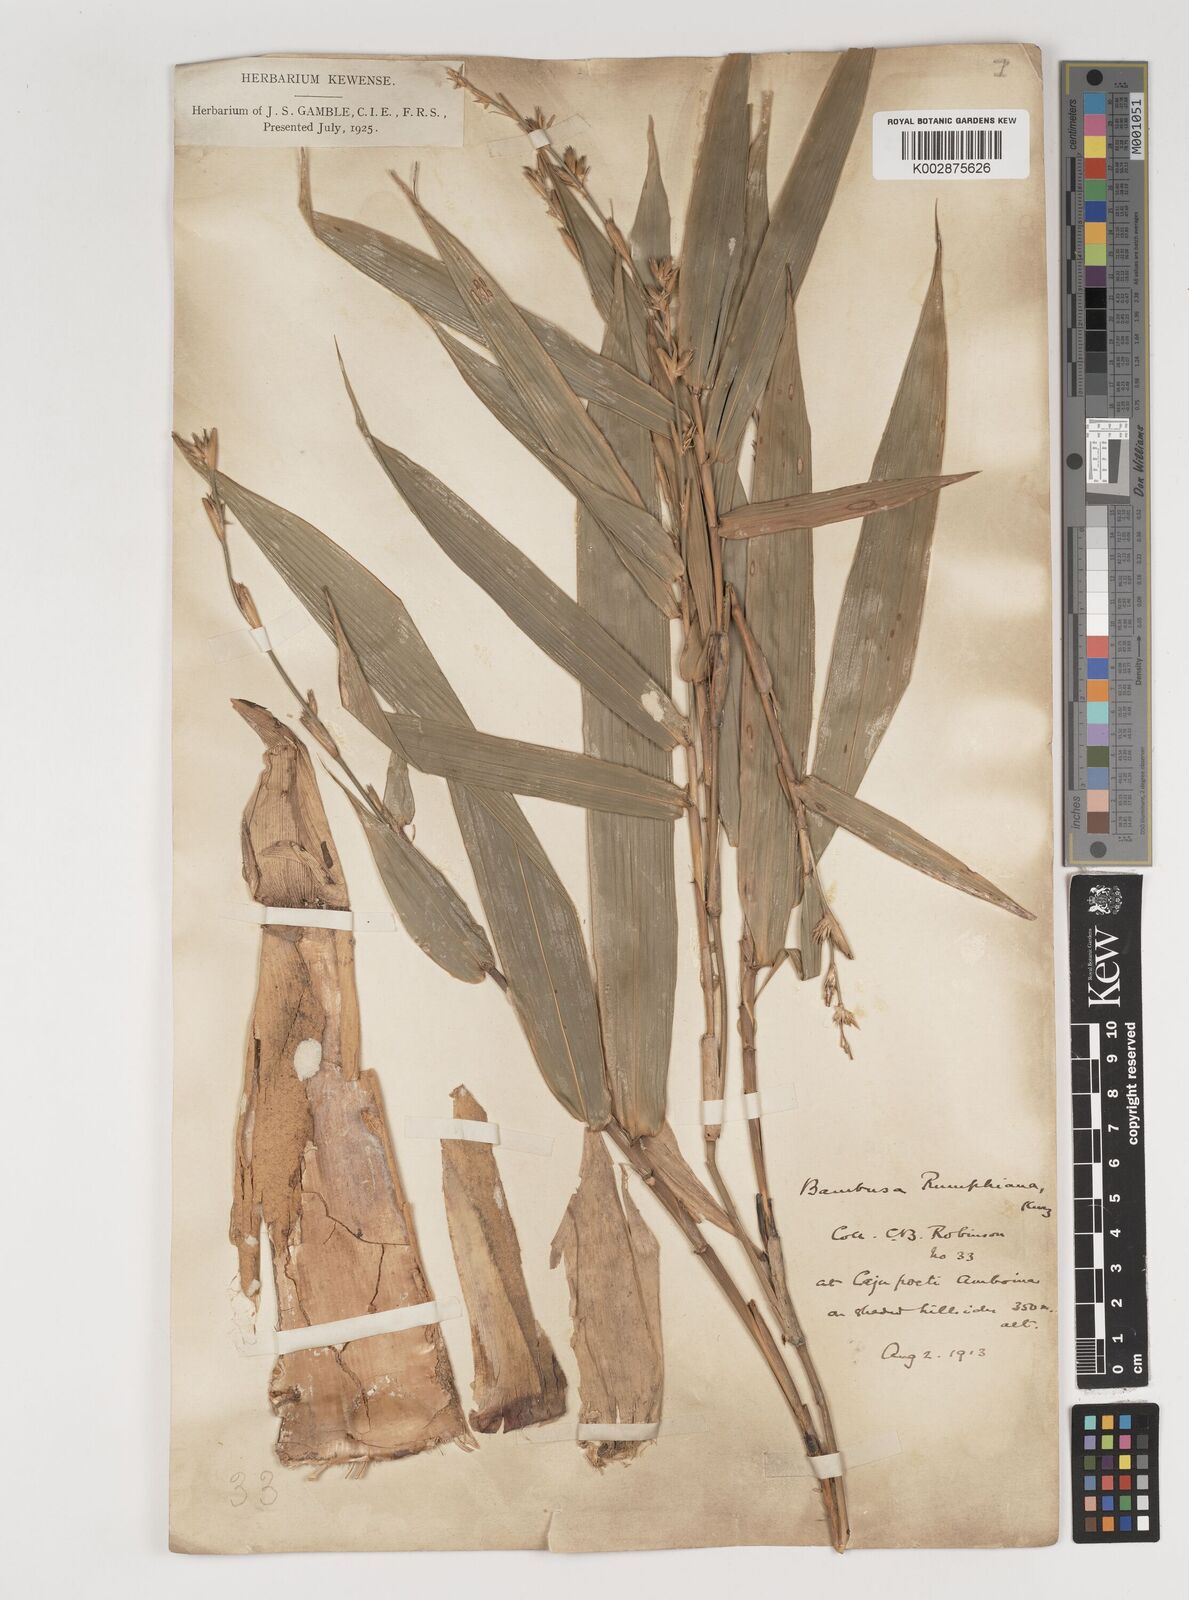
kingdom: Plantae
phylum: Tracheophyta
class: Liliopsida
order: Poales
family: Poaceae
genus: Neololeba
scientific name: Neololeba atra
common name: Cape bamboo
